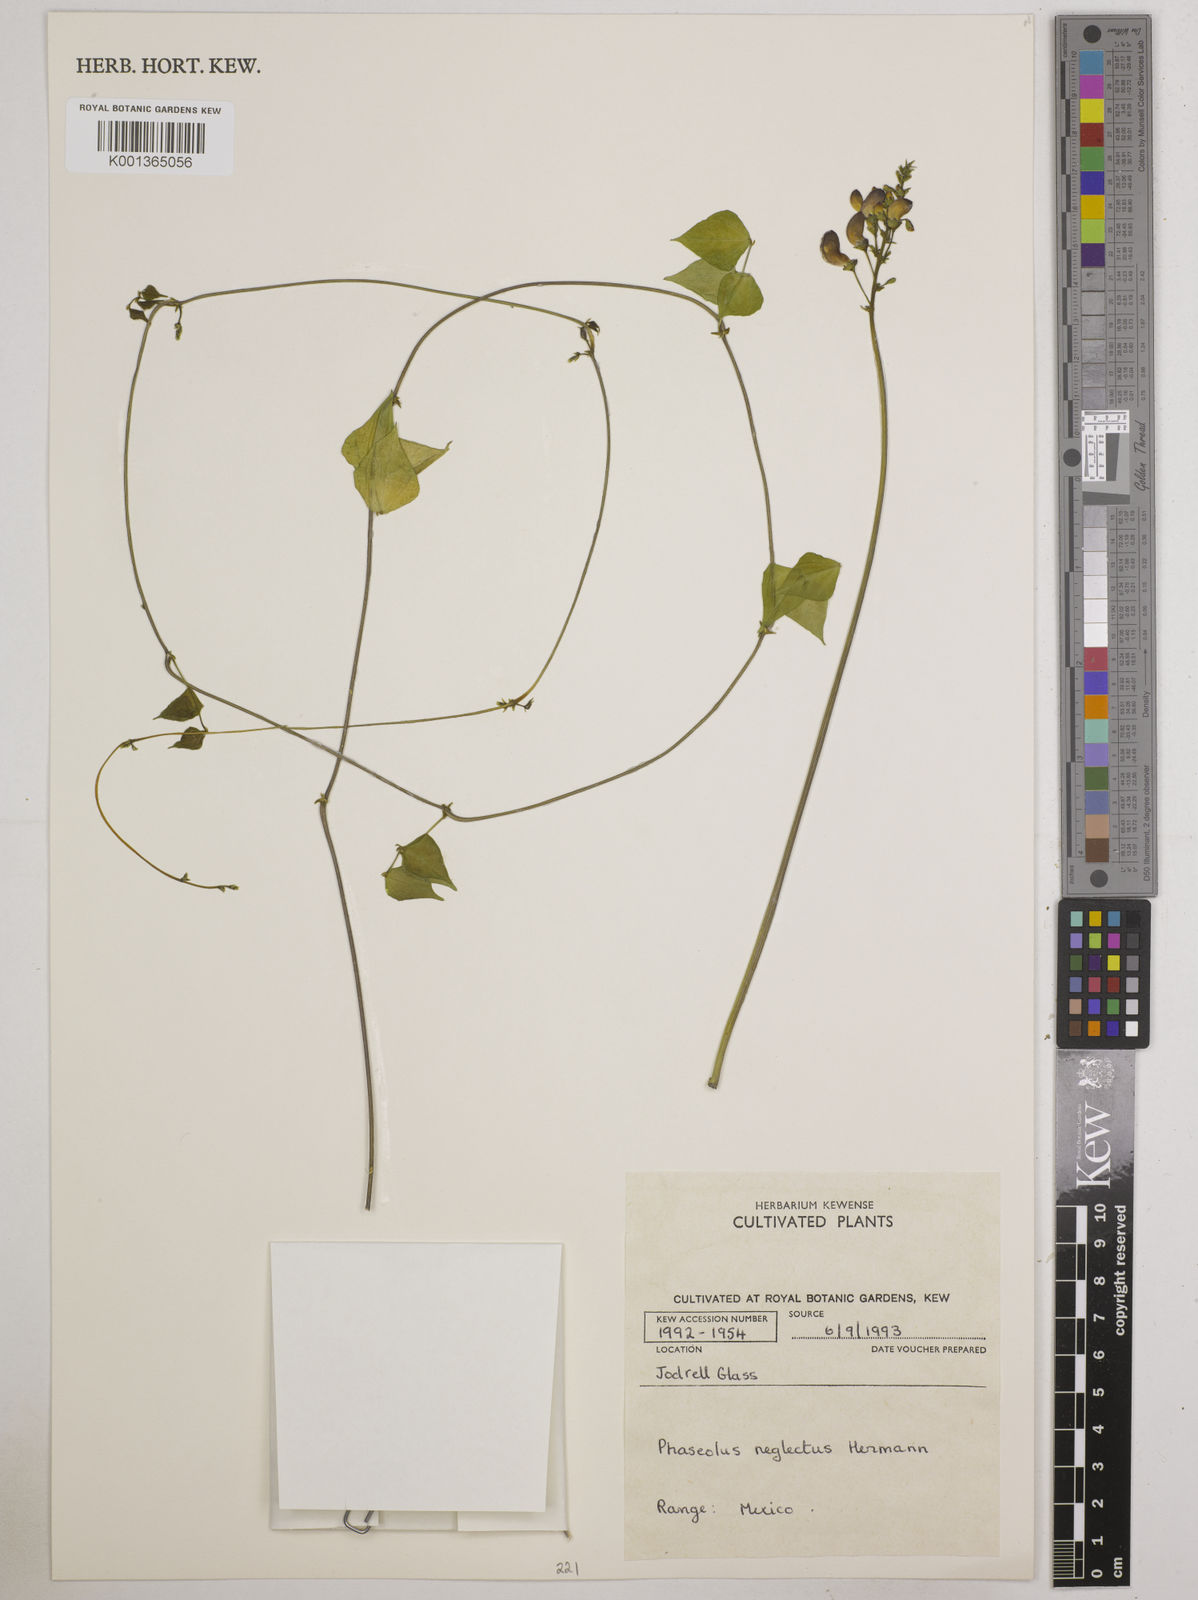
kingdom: Plantae
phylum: Tracheophyta
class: Magnoliopsida
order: Fabales
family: Fabaceae
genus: Phaseolus
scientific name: Phaseolus neglectus
